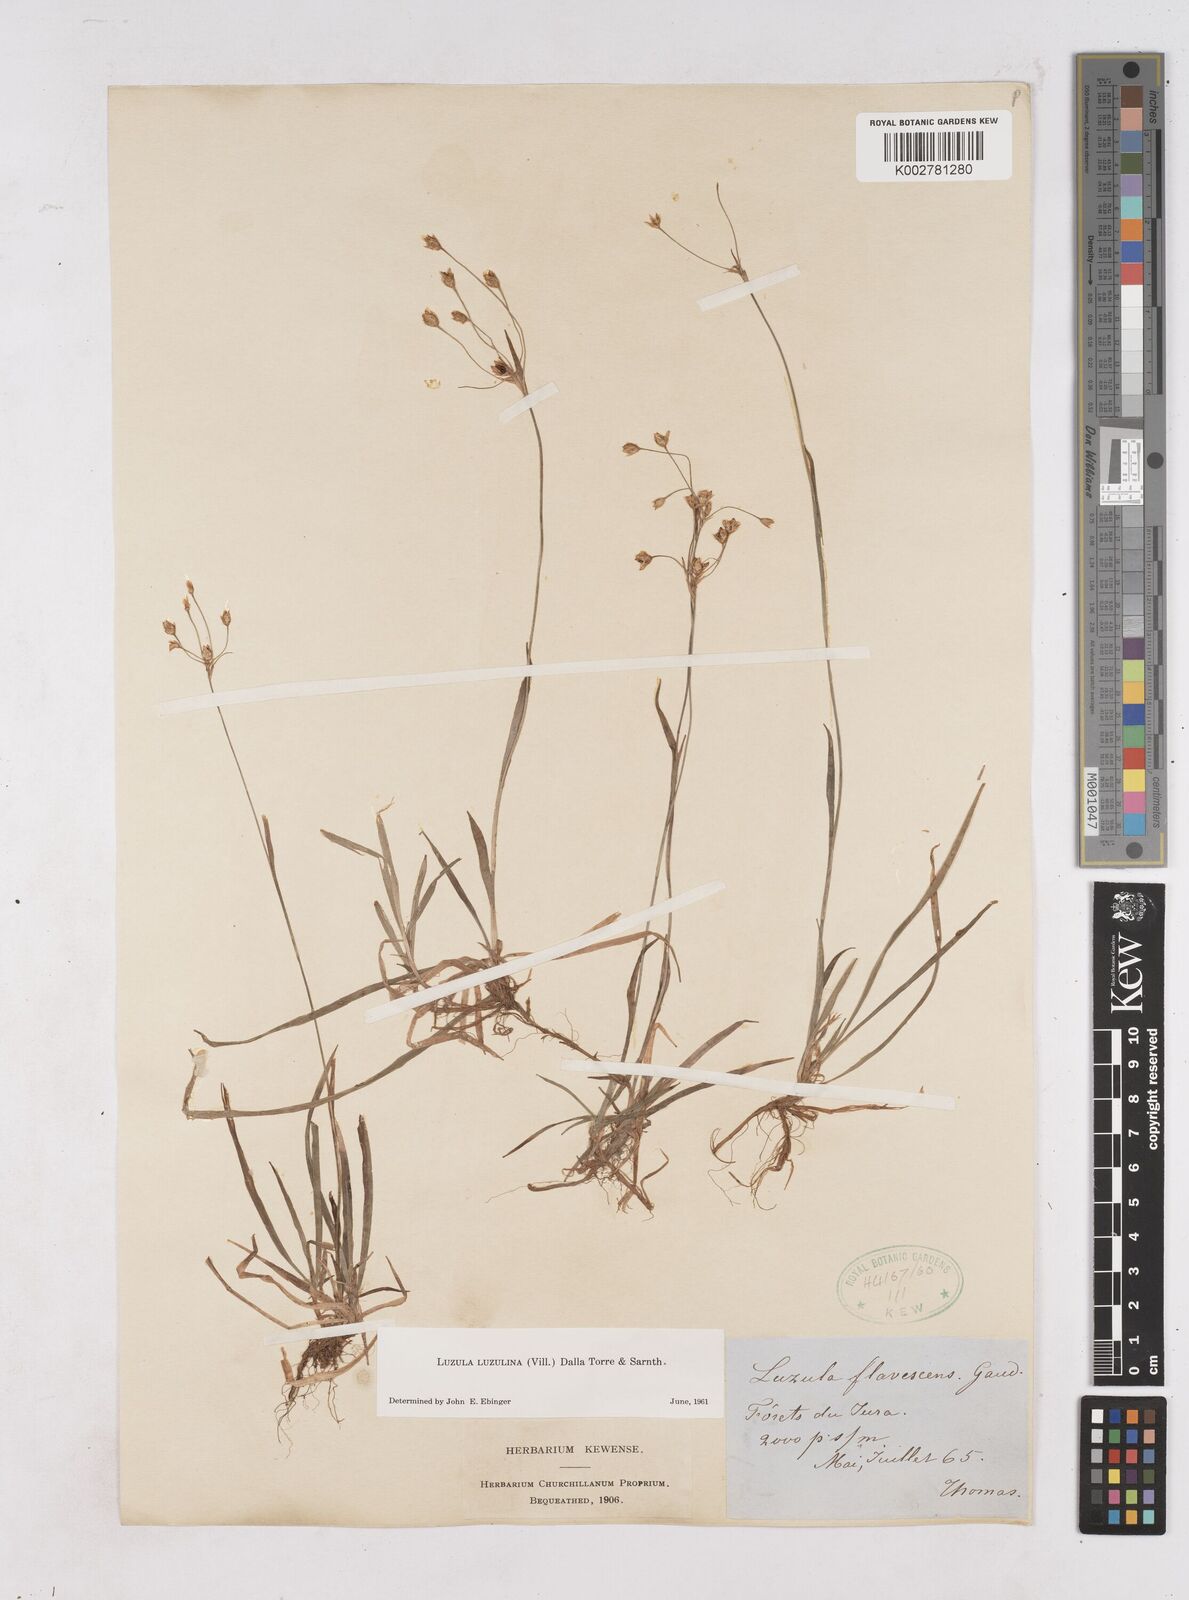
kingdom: Plantae
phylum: Tracheophyta
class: Liliopsida
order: Poales
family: Juncaceae
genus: Luzula
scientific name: Luzula luzulina
